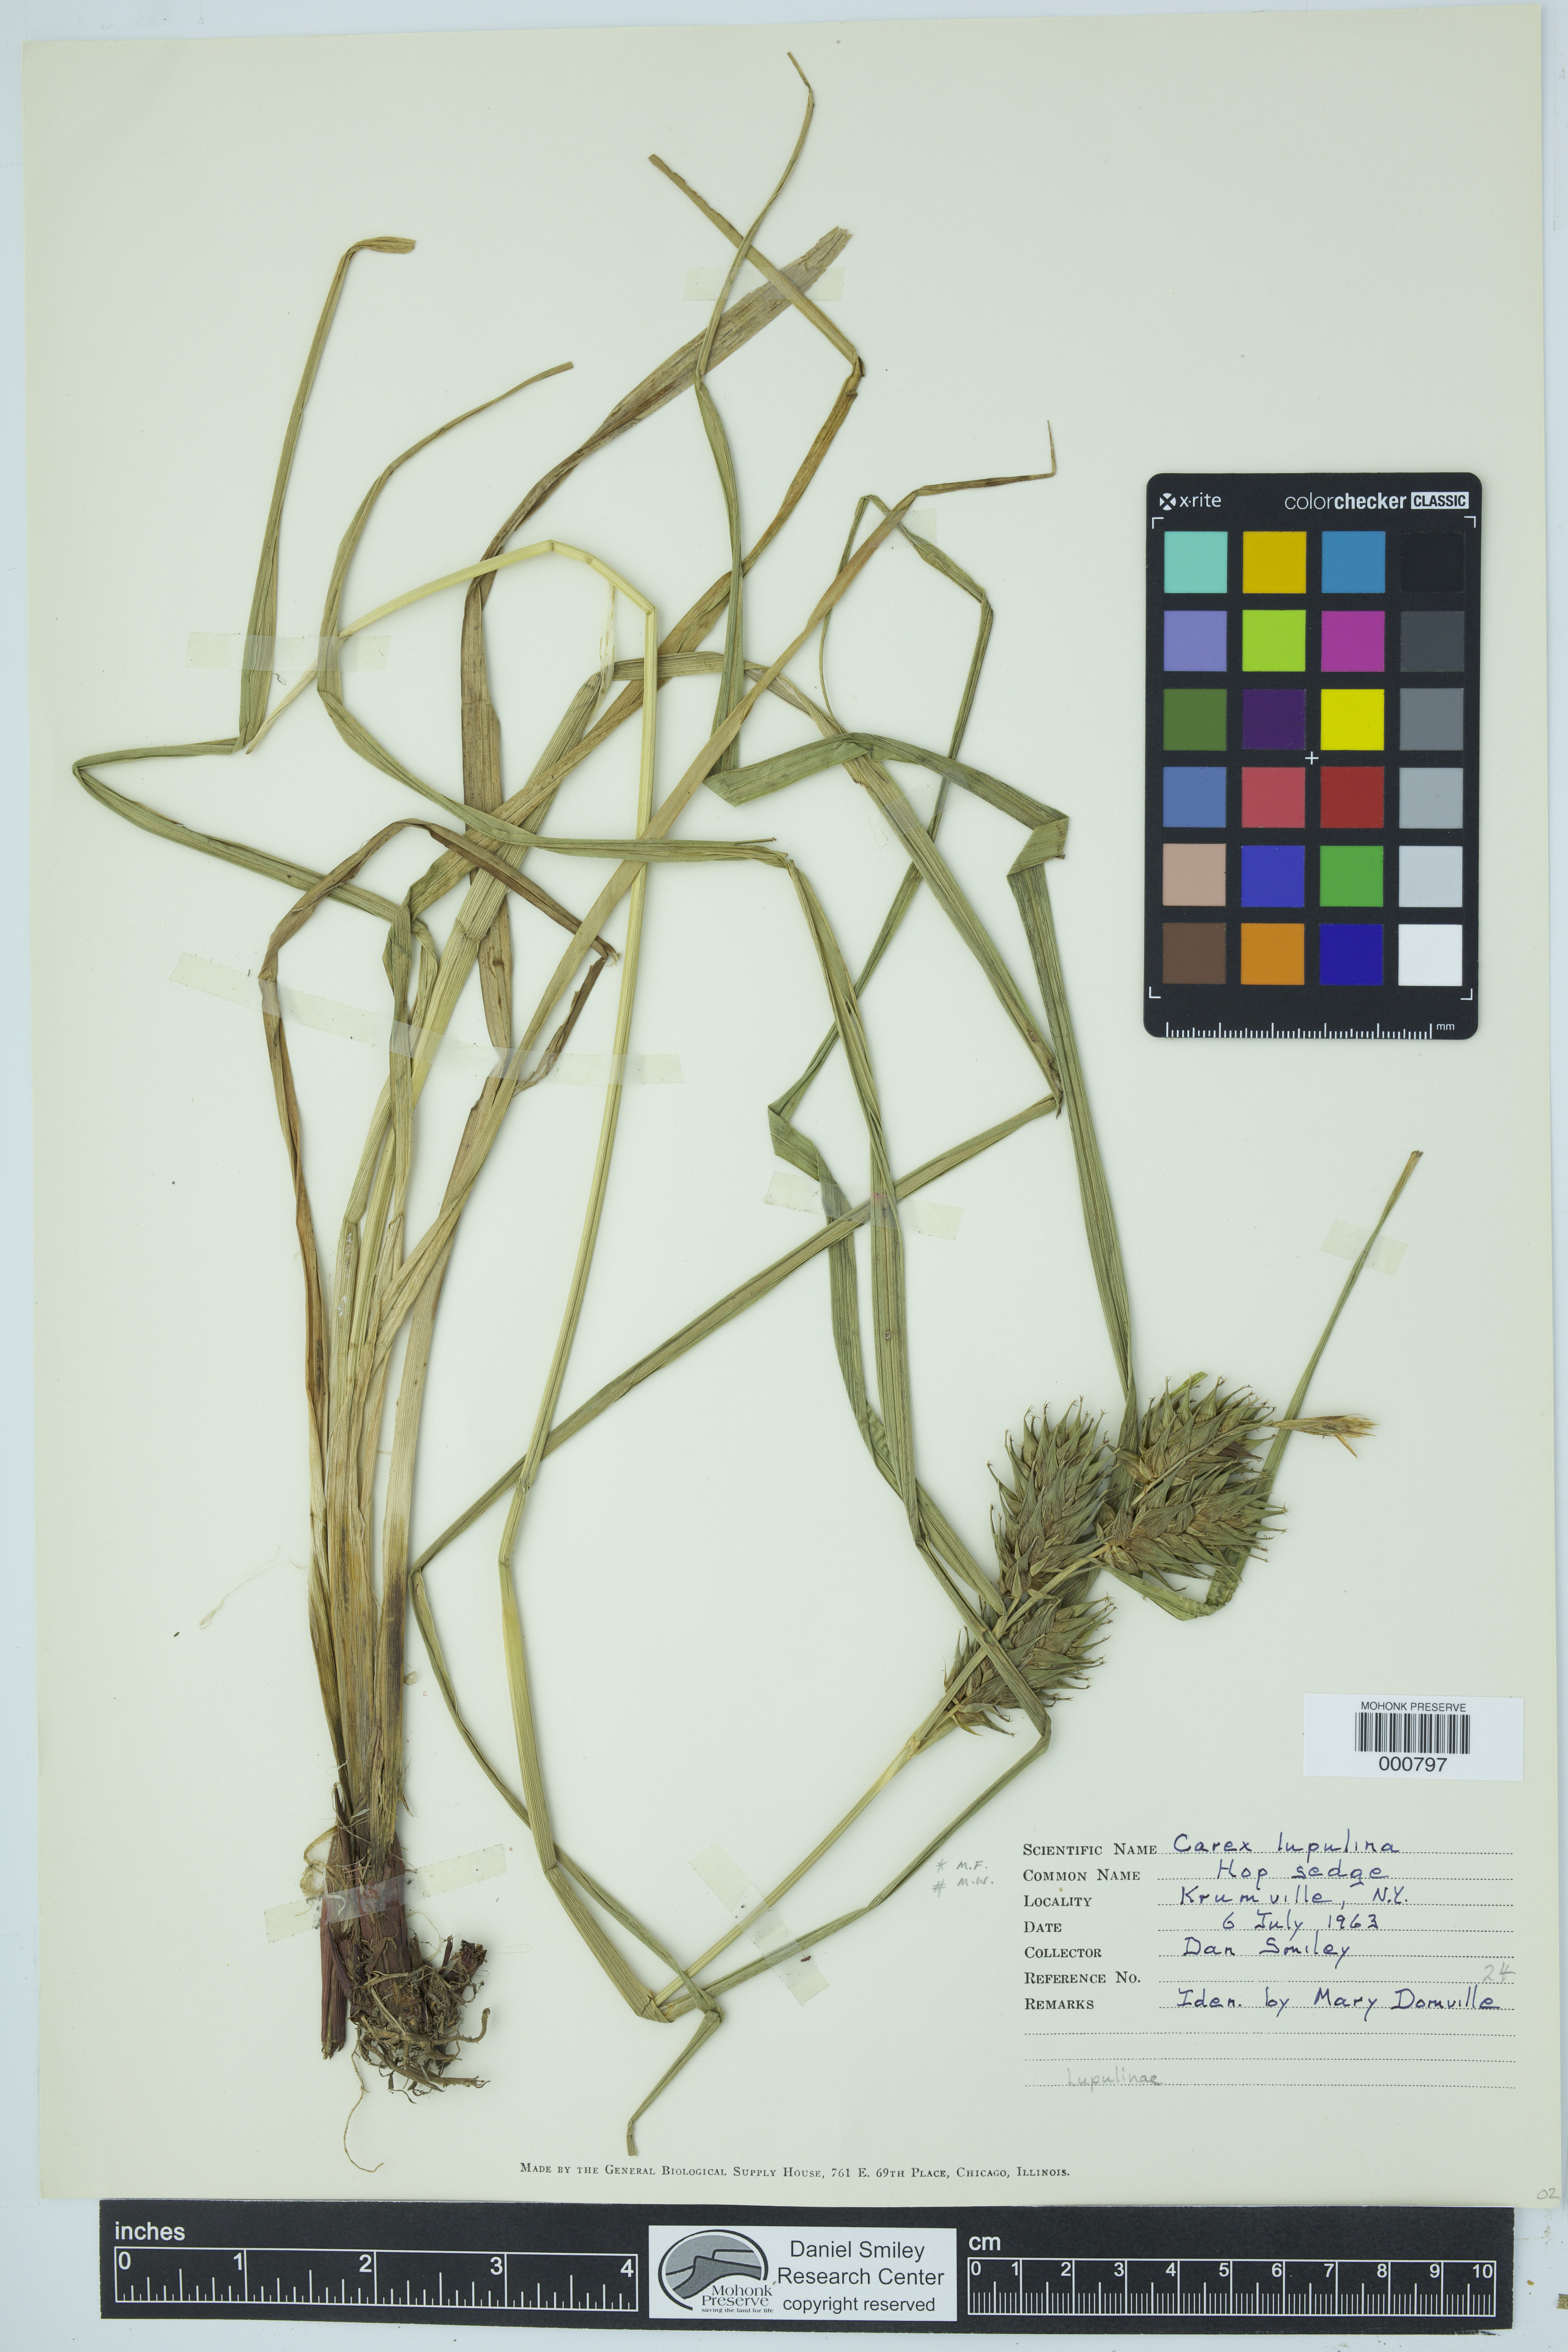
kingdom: Plantae
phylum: Tracheophyta
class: Liliopsida
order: Poales
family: Cyperaceae
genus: Carex
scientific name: Carex lupulina
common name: Hop sedge
